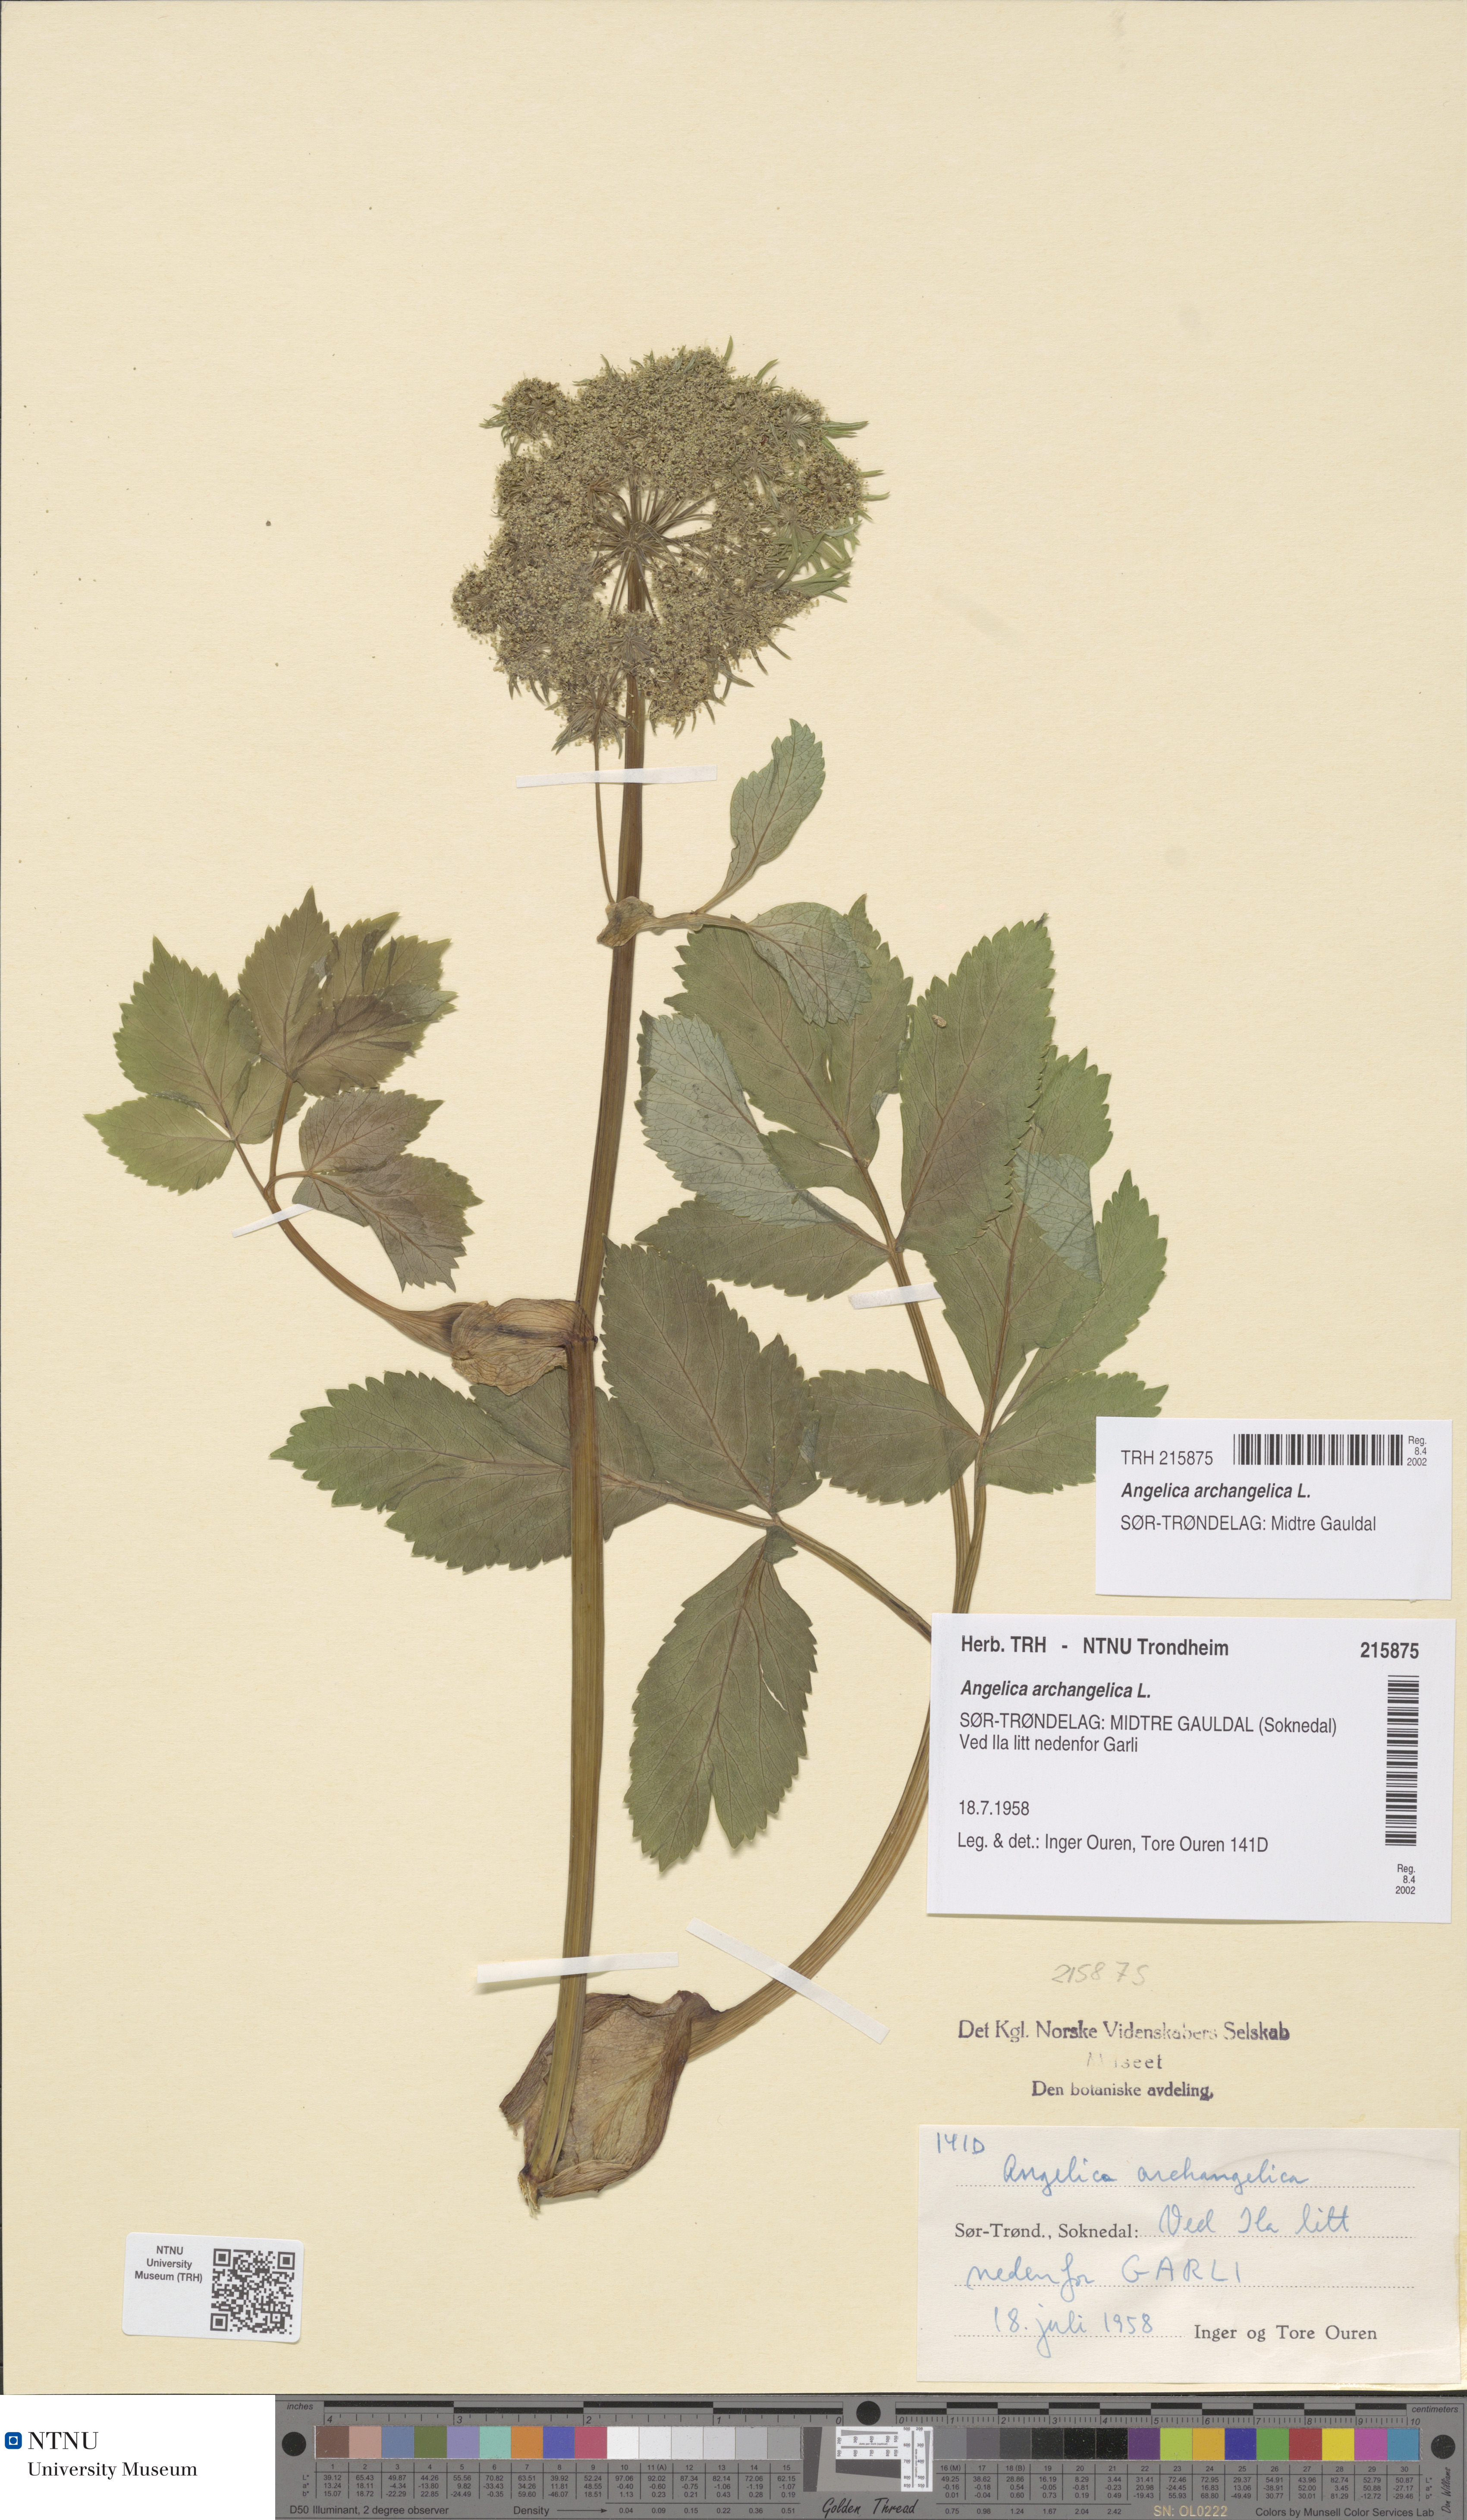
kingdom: Plantae
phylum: Tracheophyta
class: Magnoliopsida
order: Apiales
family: Apiaceae
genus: Angelica
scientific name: Angelica archangelica
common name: Garden angelica
